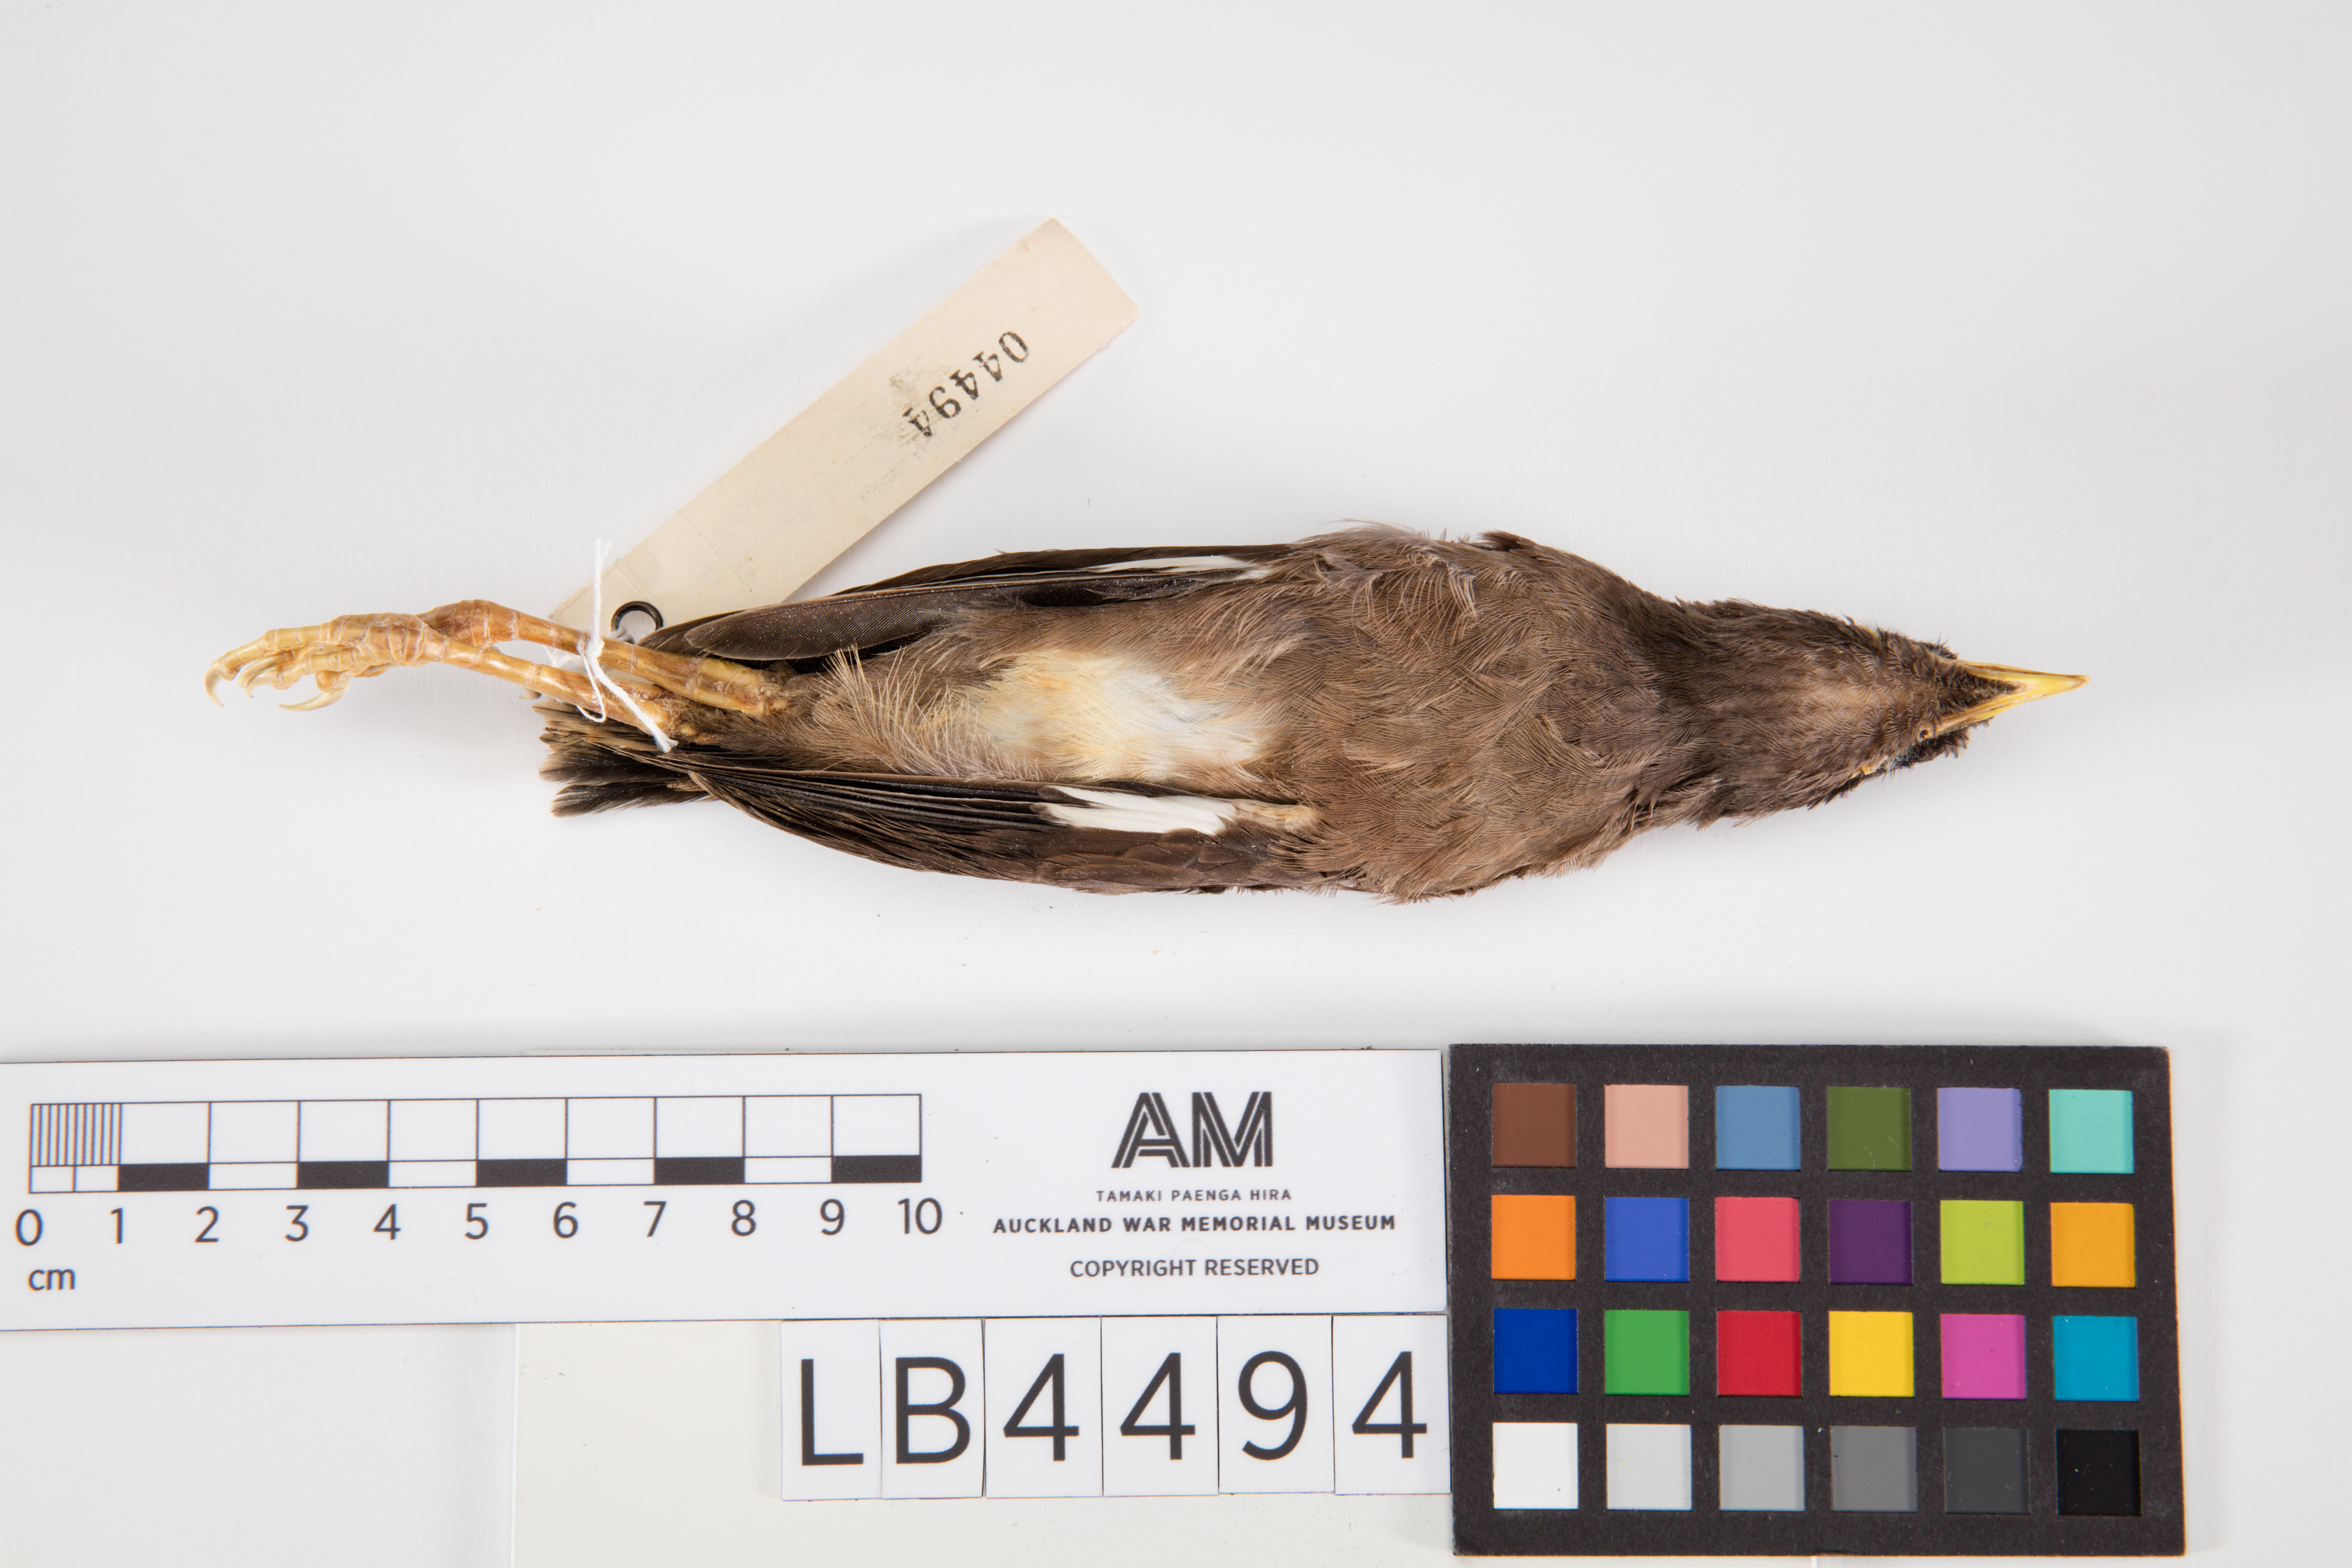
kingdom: Animalia
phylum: Chordata
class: Aves
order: Passeriformes
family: Sturnidae
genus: Acridotheres
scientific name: Acridotheres tristis
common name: Common myna
